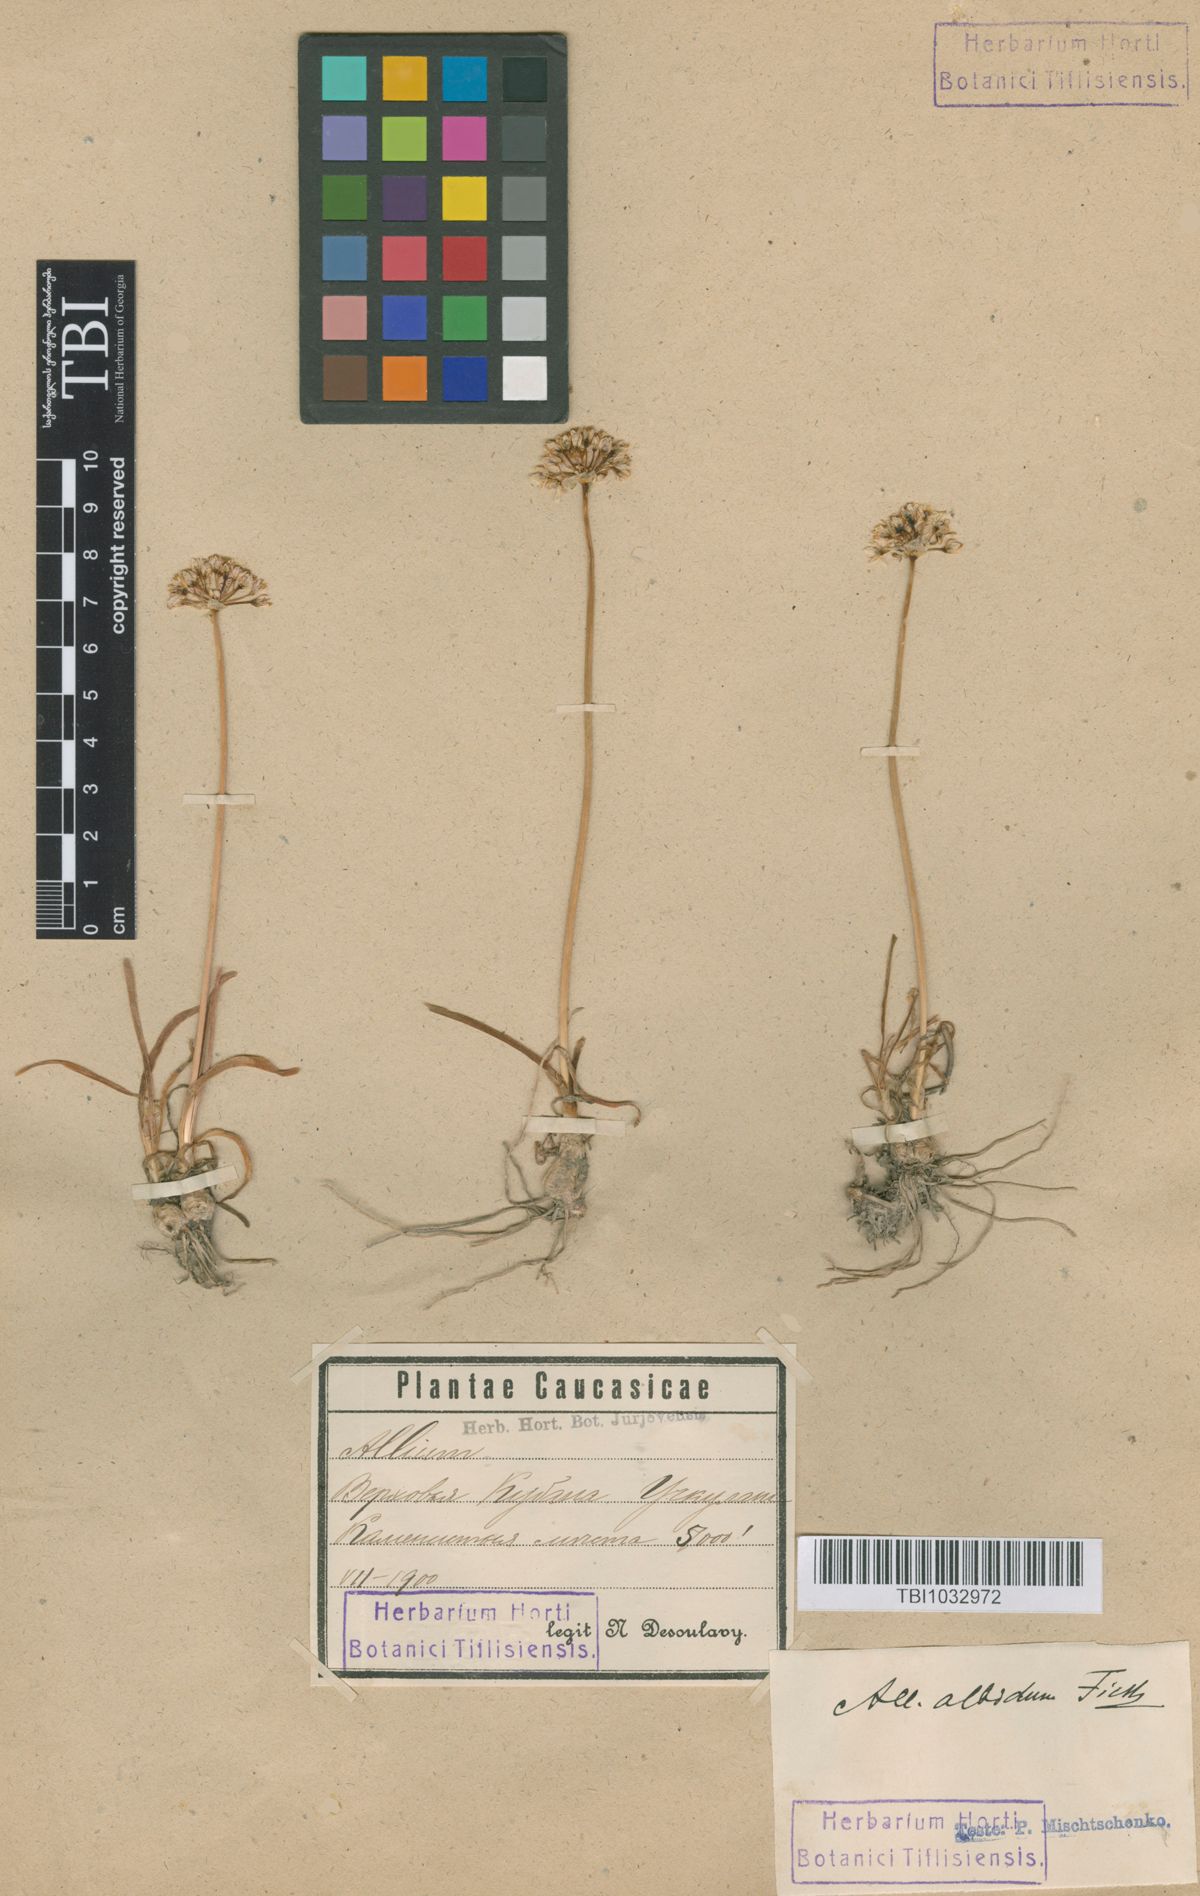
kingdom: Plantae
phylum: Tracheophyta
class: Liliopsida
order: Asparagales
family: Amaryllidaceae
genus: Allium
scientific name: Allium denudatum
